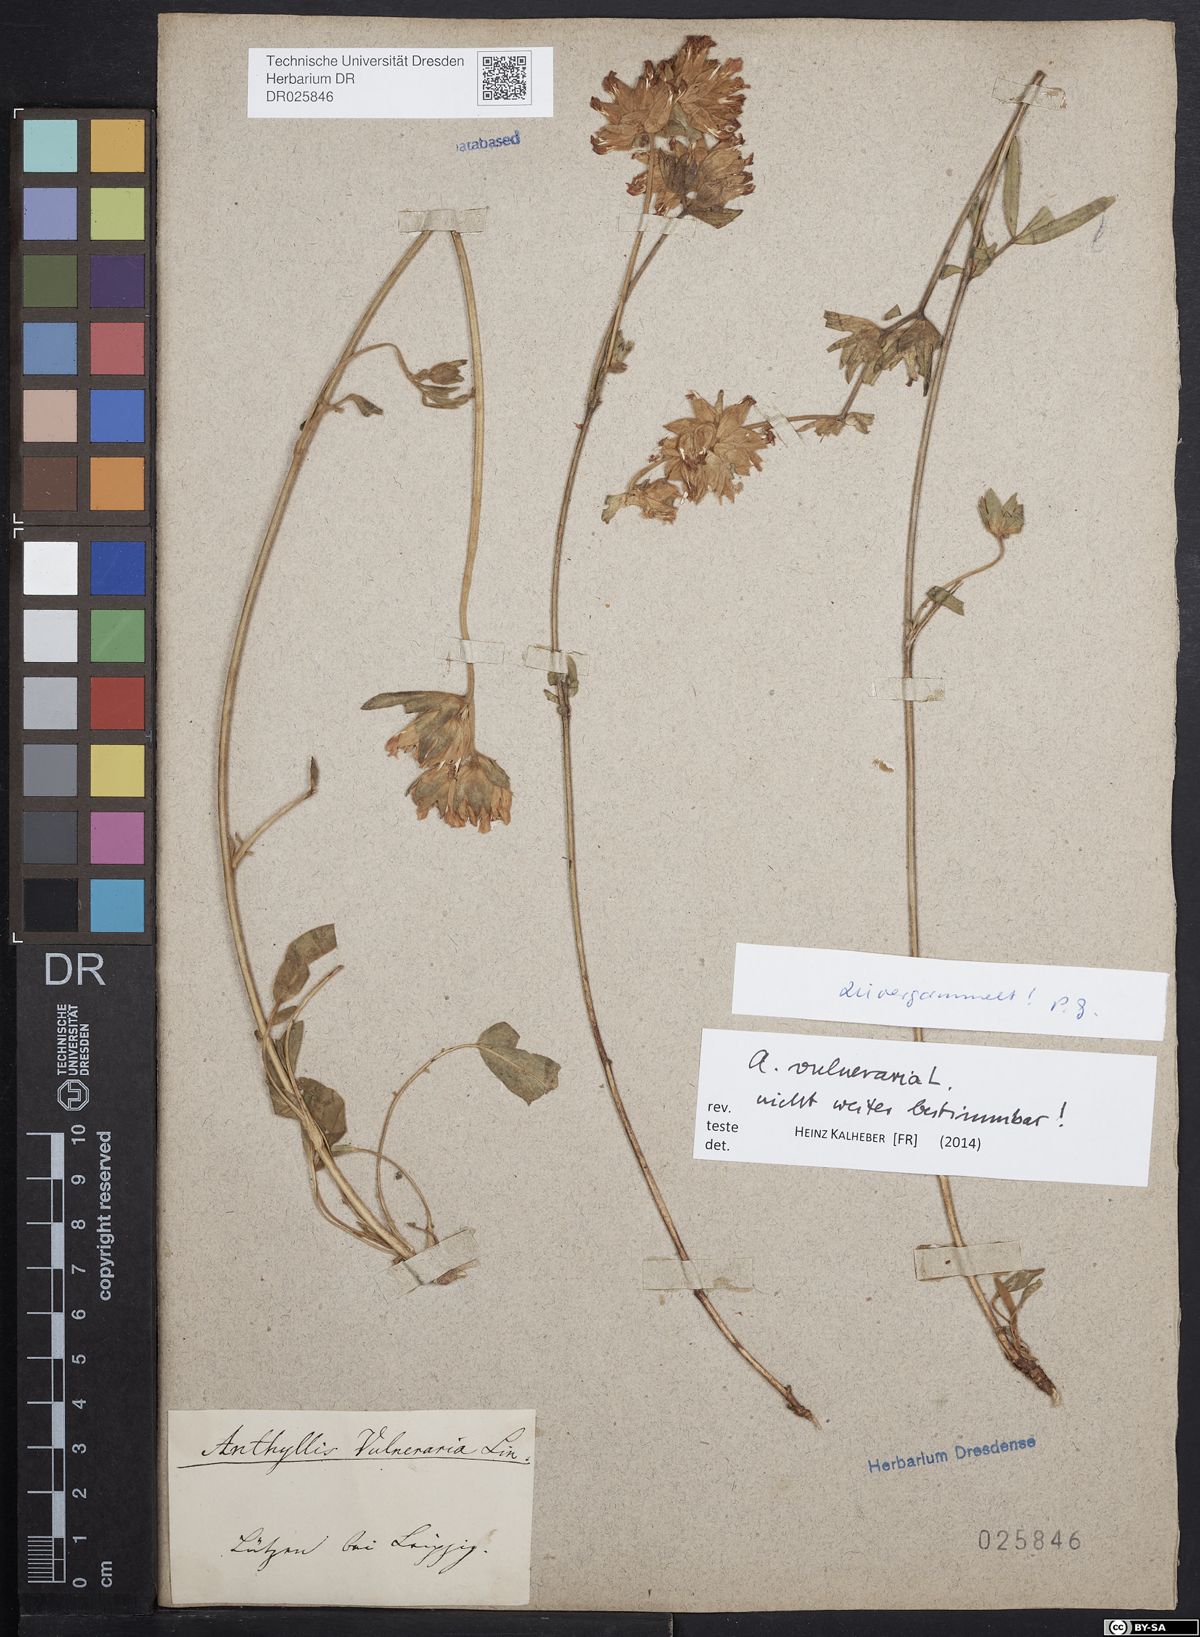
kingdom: Plantae
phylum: Tracheophyta
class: Magnoliopsida
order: Fabales
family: Fabaceae
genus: Anthyllis
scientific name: Anthyllis vulneraria
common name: Kidney vetch
